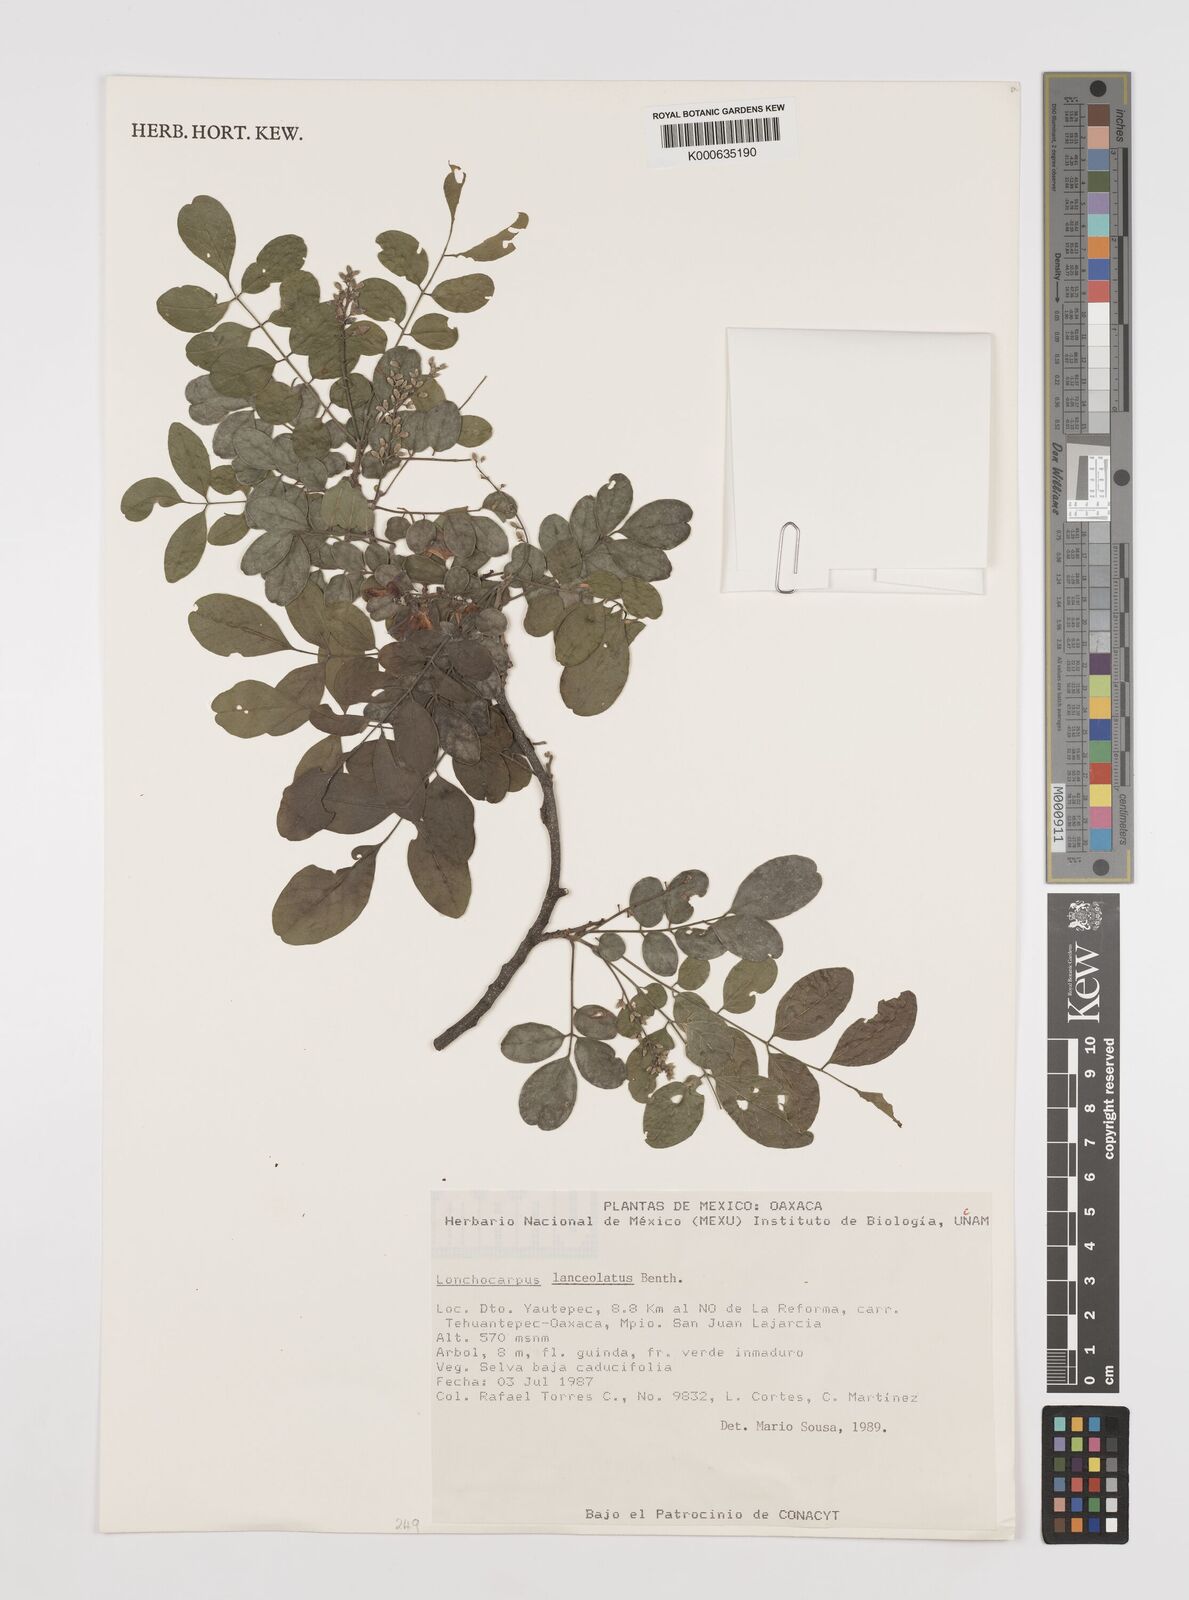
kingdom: Plantae
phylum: Tracheophyta
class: Magnoliopsida
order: Fabales
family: Fabaceae
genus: Lonchocarpus
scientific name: Lonchocarpus lanceolatus
